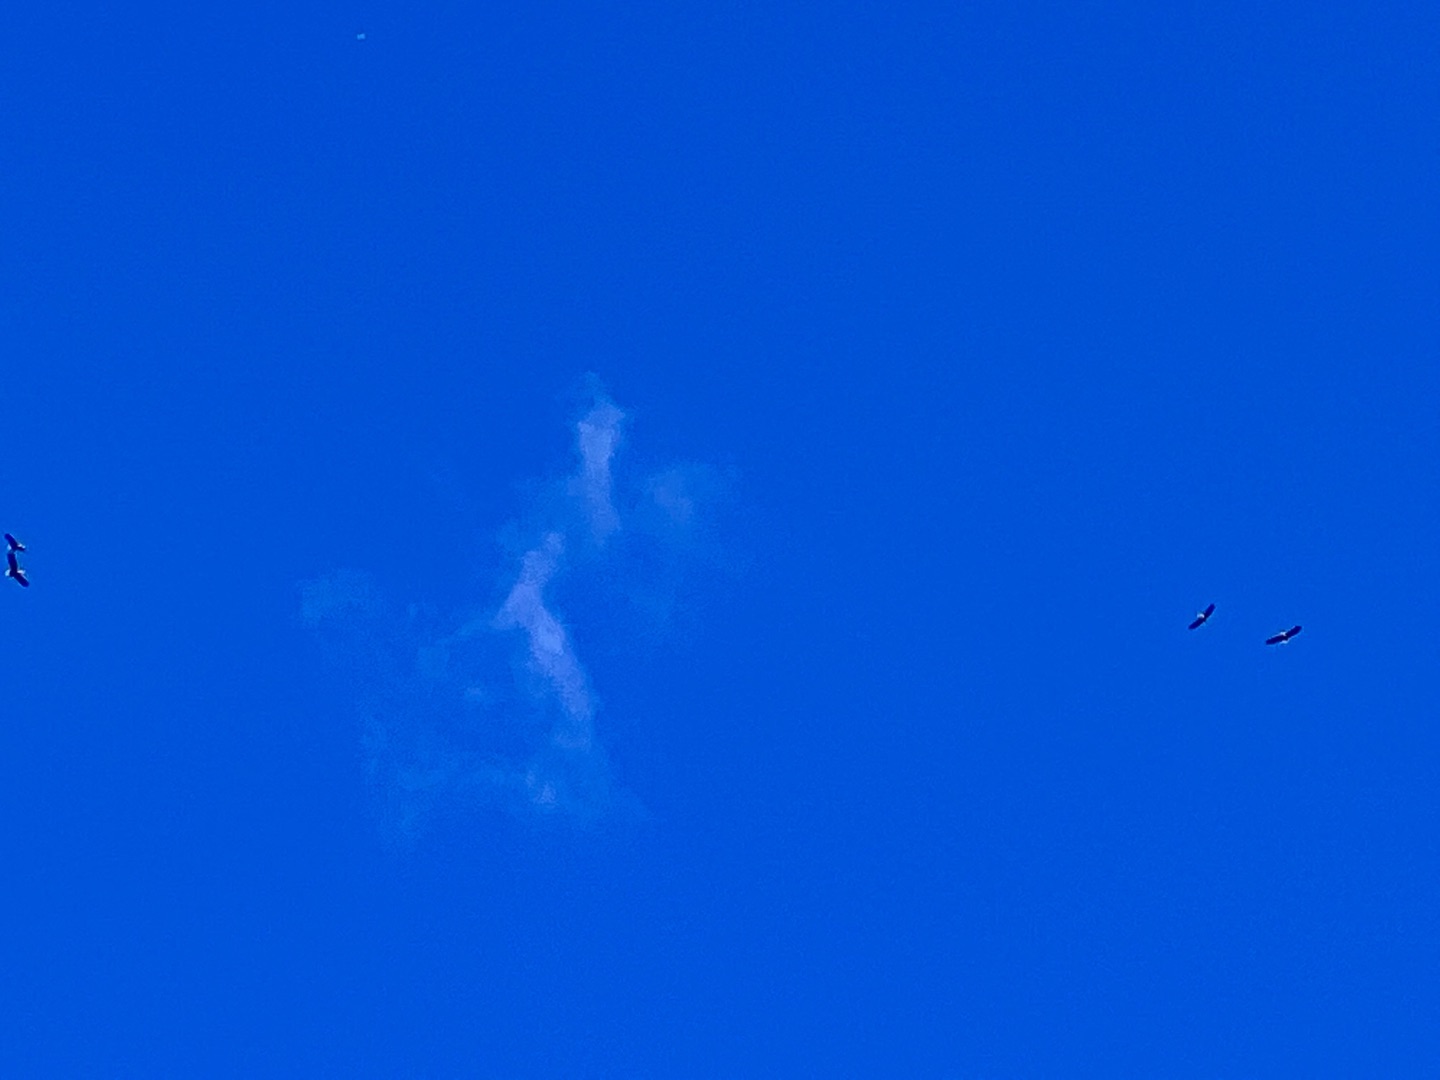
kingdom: Animalia
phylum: Chordata
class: Aves
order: Accipitriformes
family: Accipitridae
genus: Haliaeetus
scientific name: Haliaeetus albicilla
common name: Havørn
